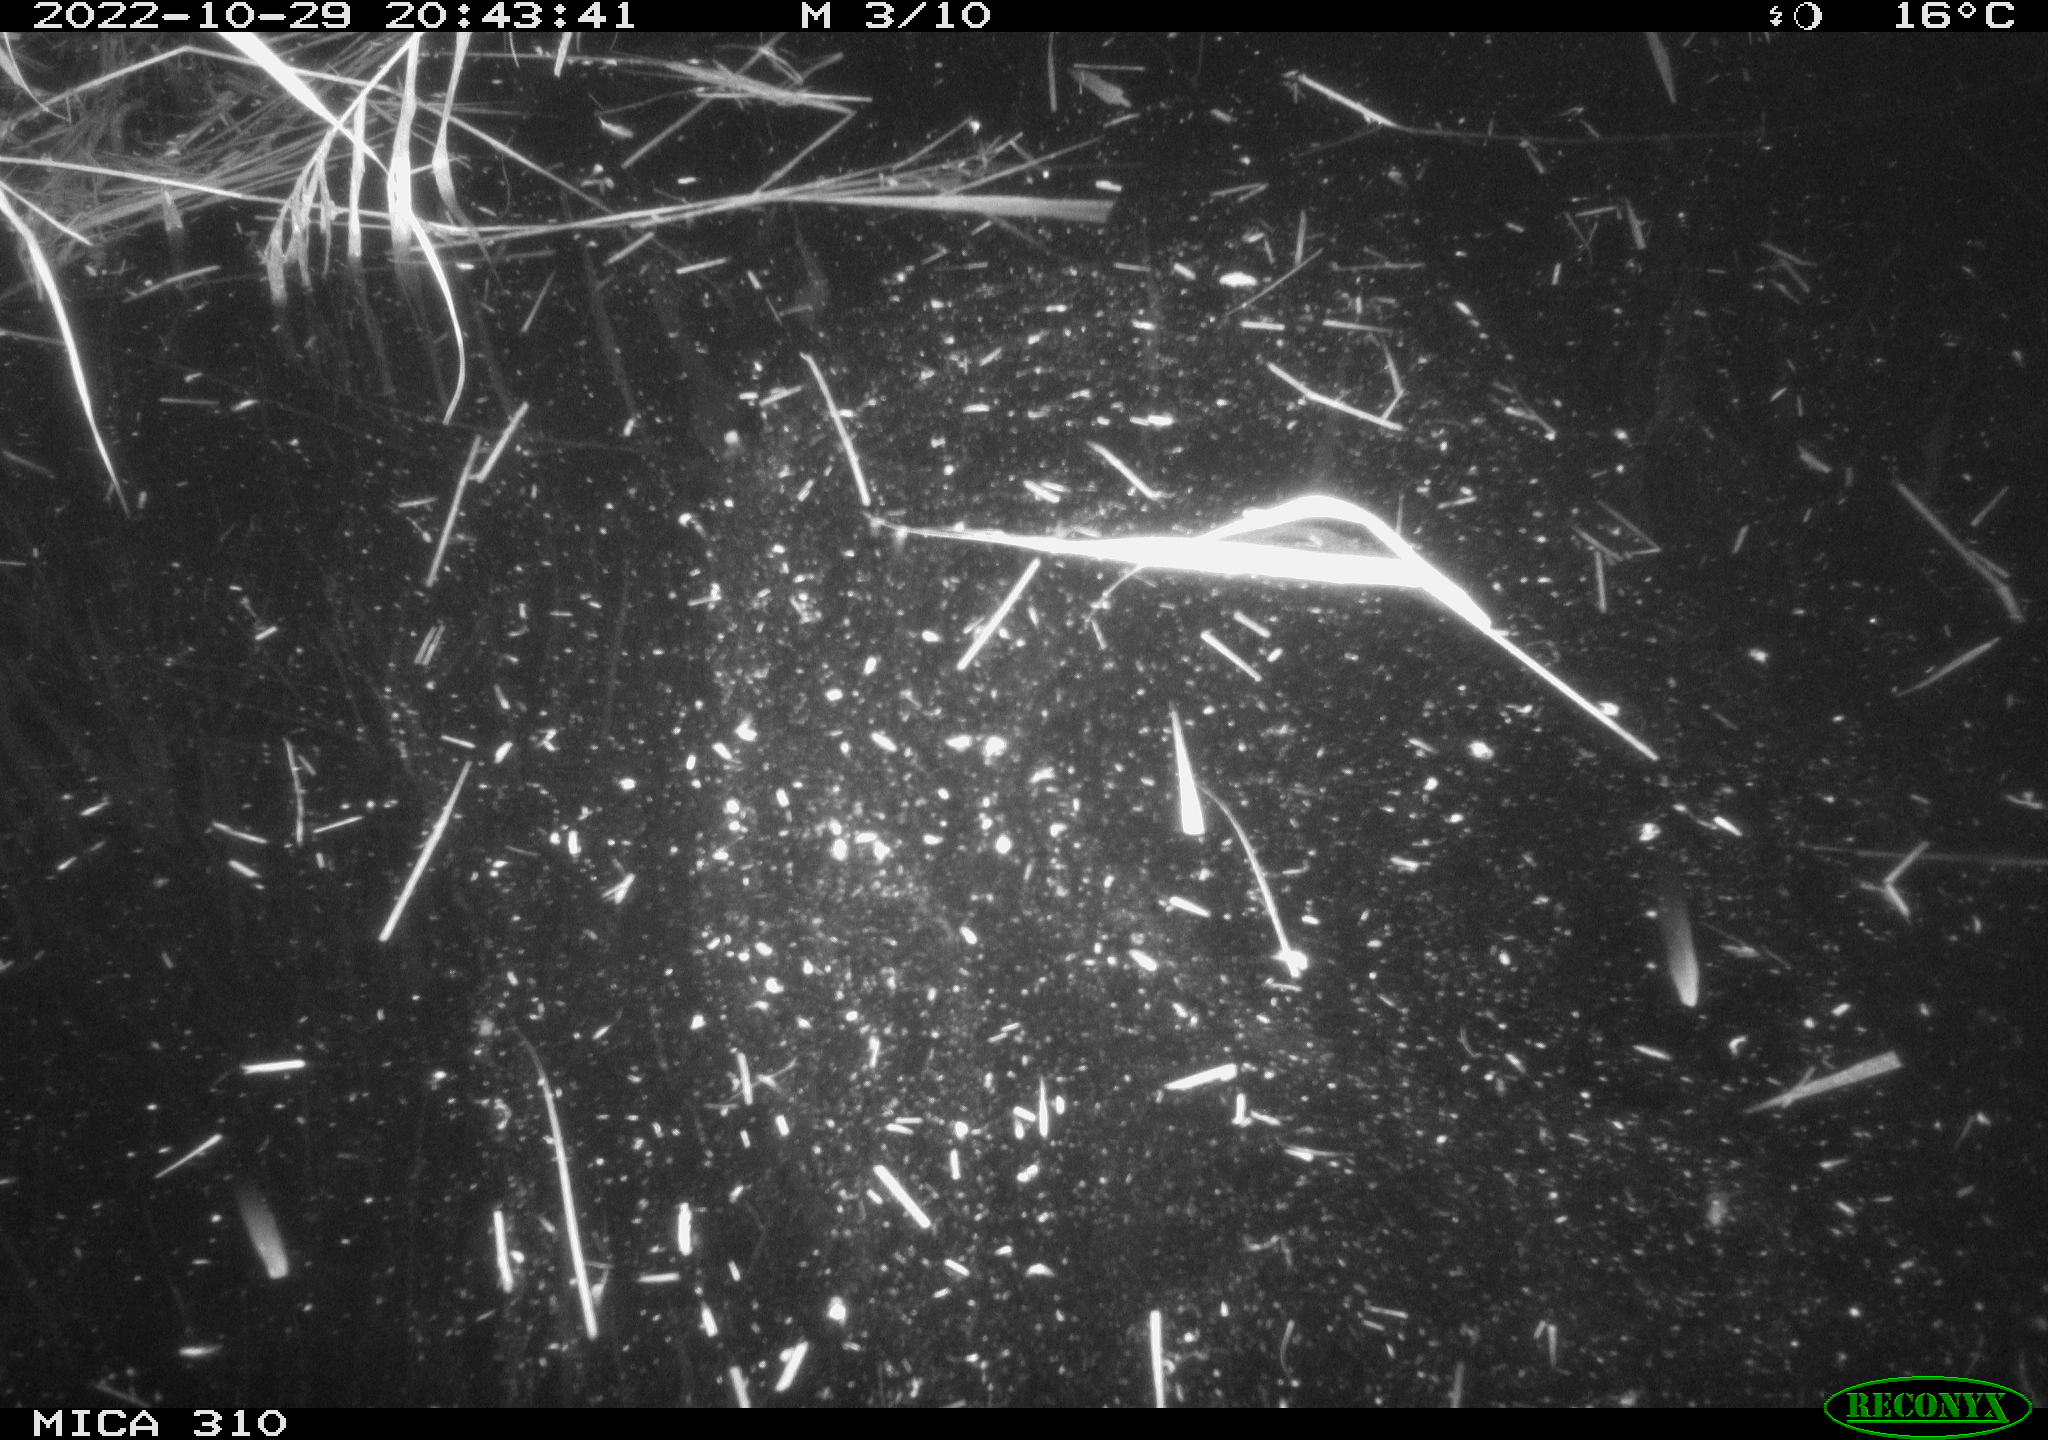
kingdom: Animalia
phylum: Chordata
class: Mammalia
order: Rodentia
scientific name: Rodentia
